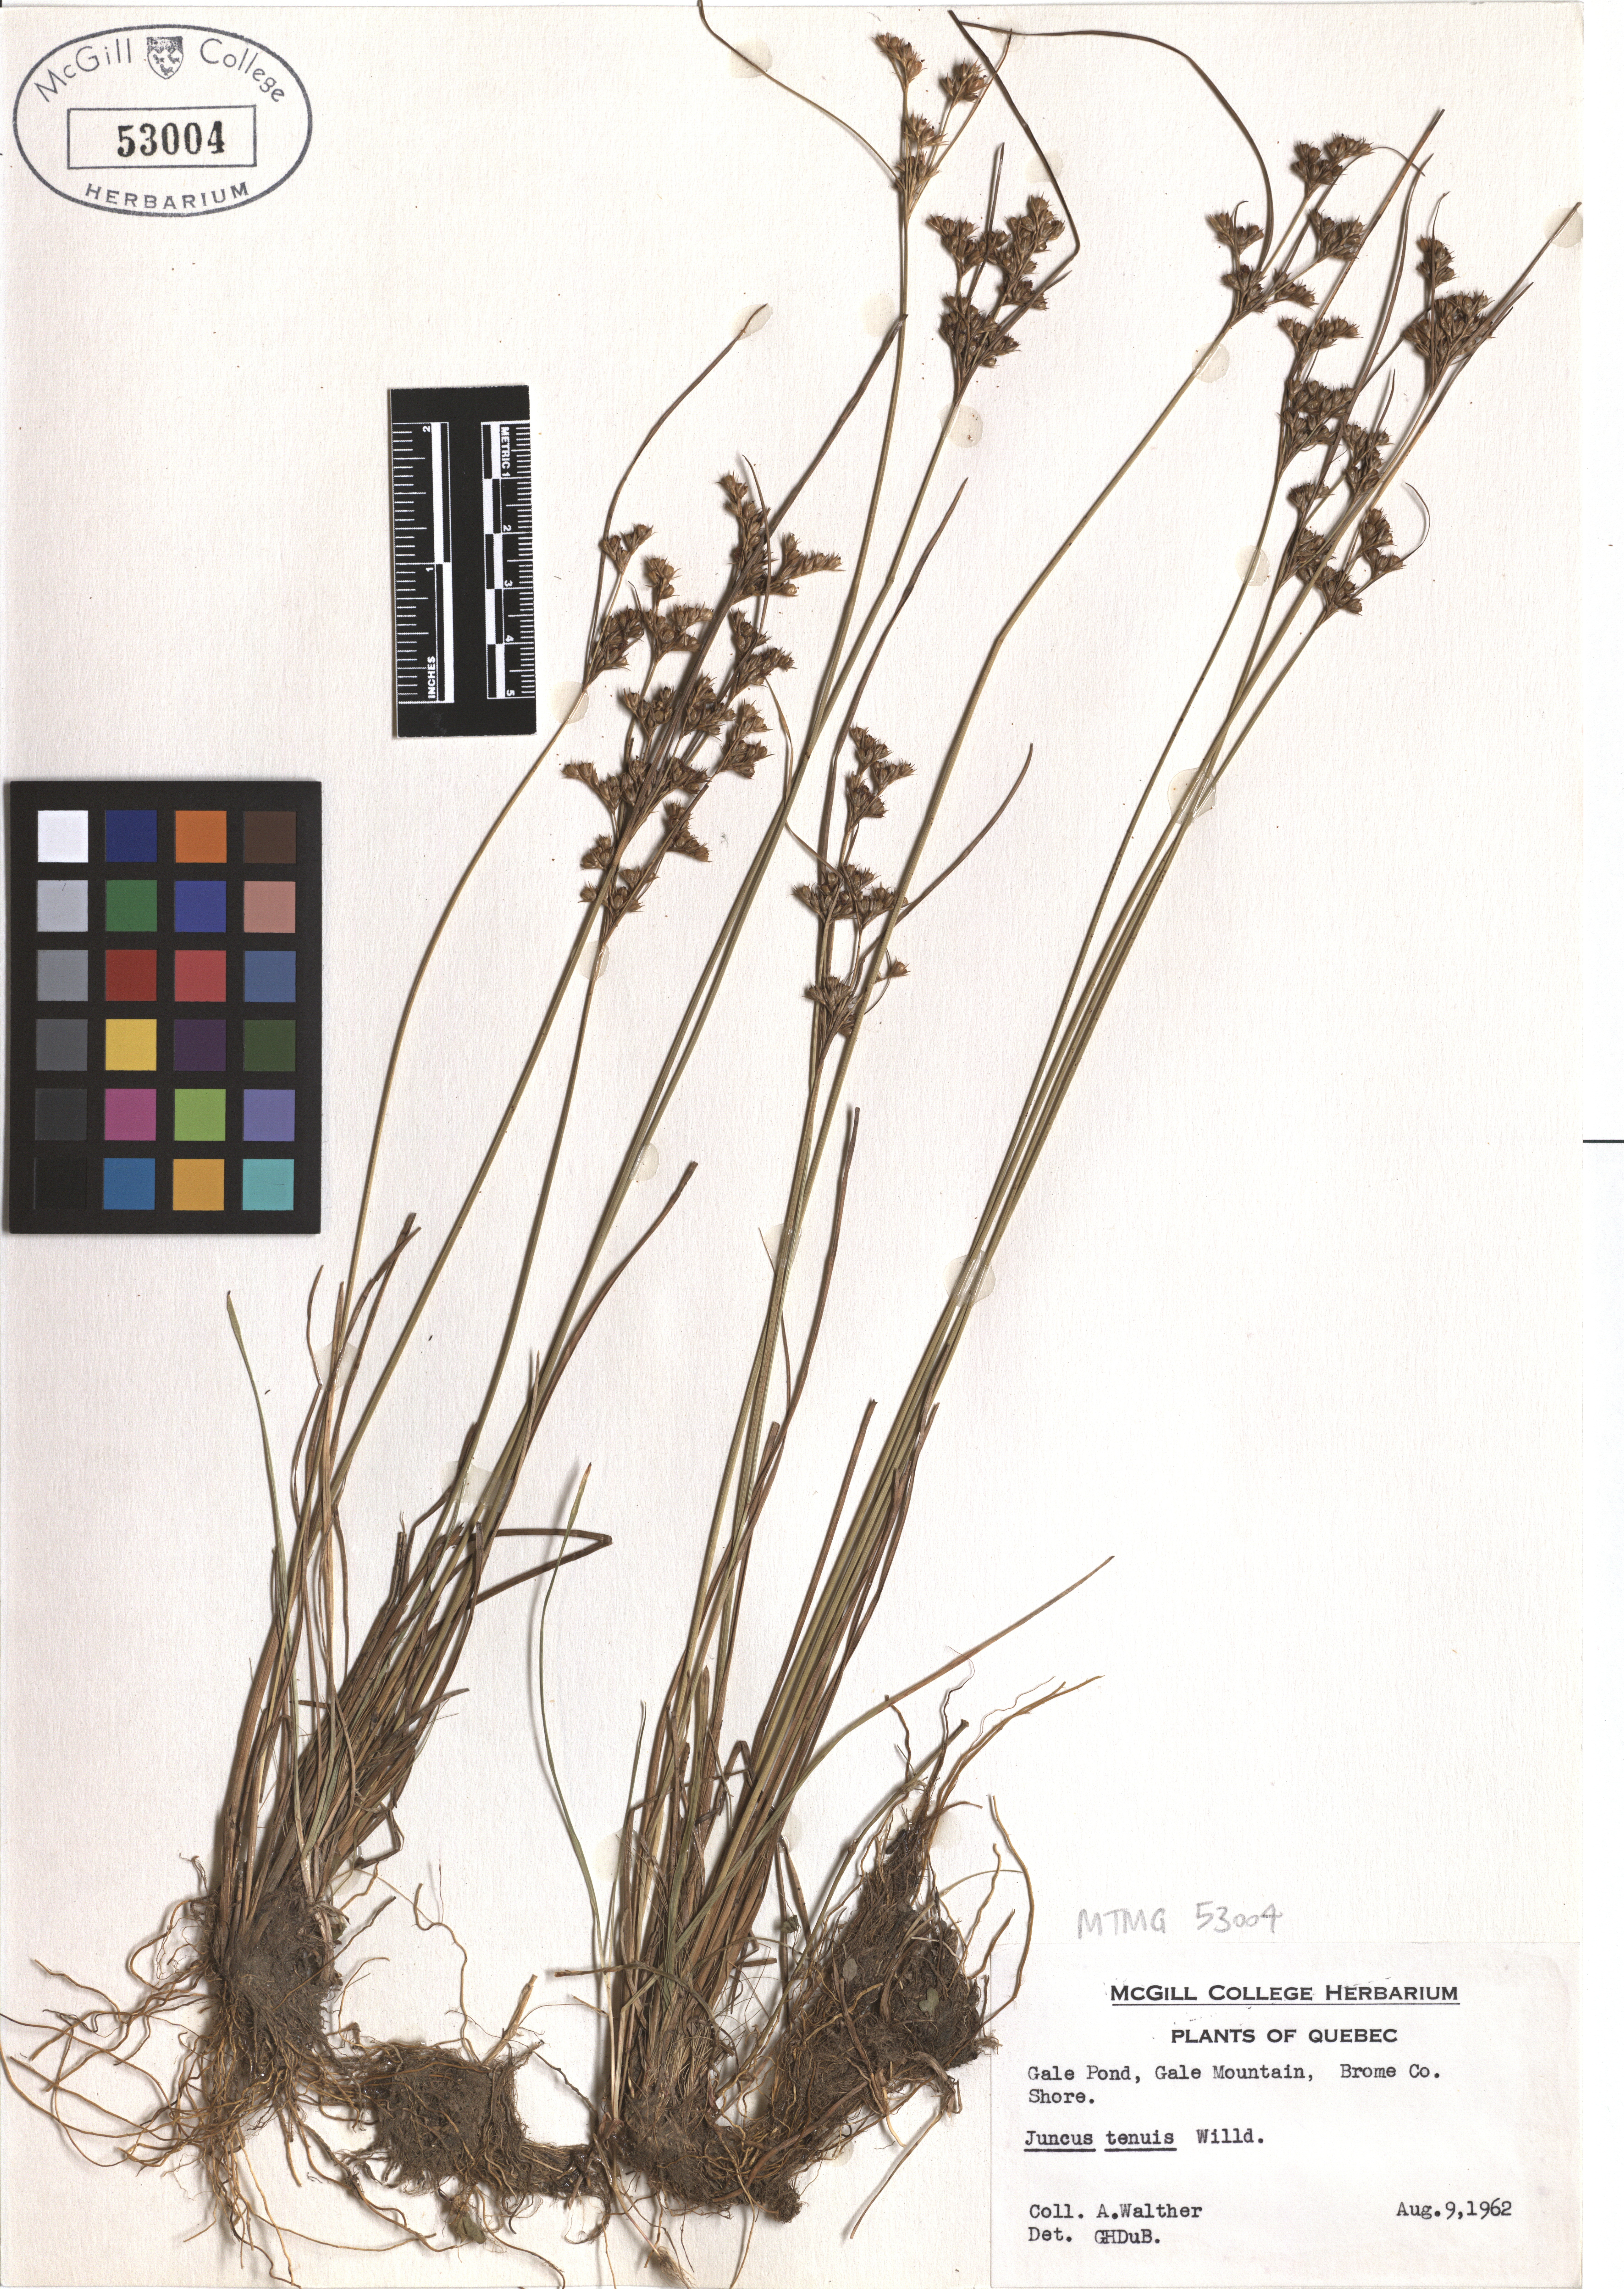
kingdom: Plantae
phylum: Tracheophyta
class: Liliopsida
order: Poales
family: Juncaceae
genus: Juncus
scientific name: Juncus tenuis
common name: Slender rush
